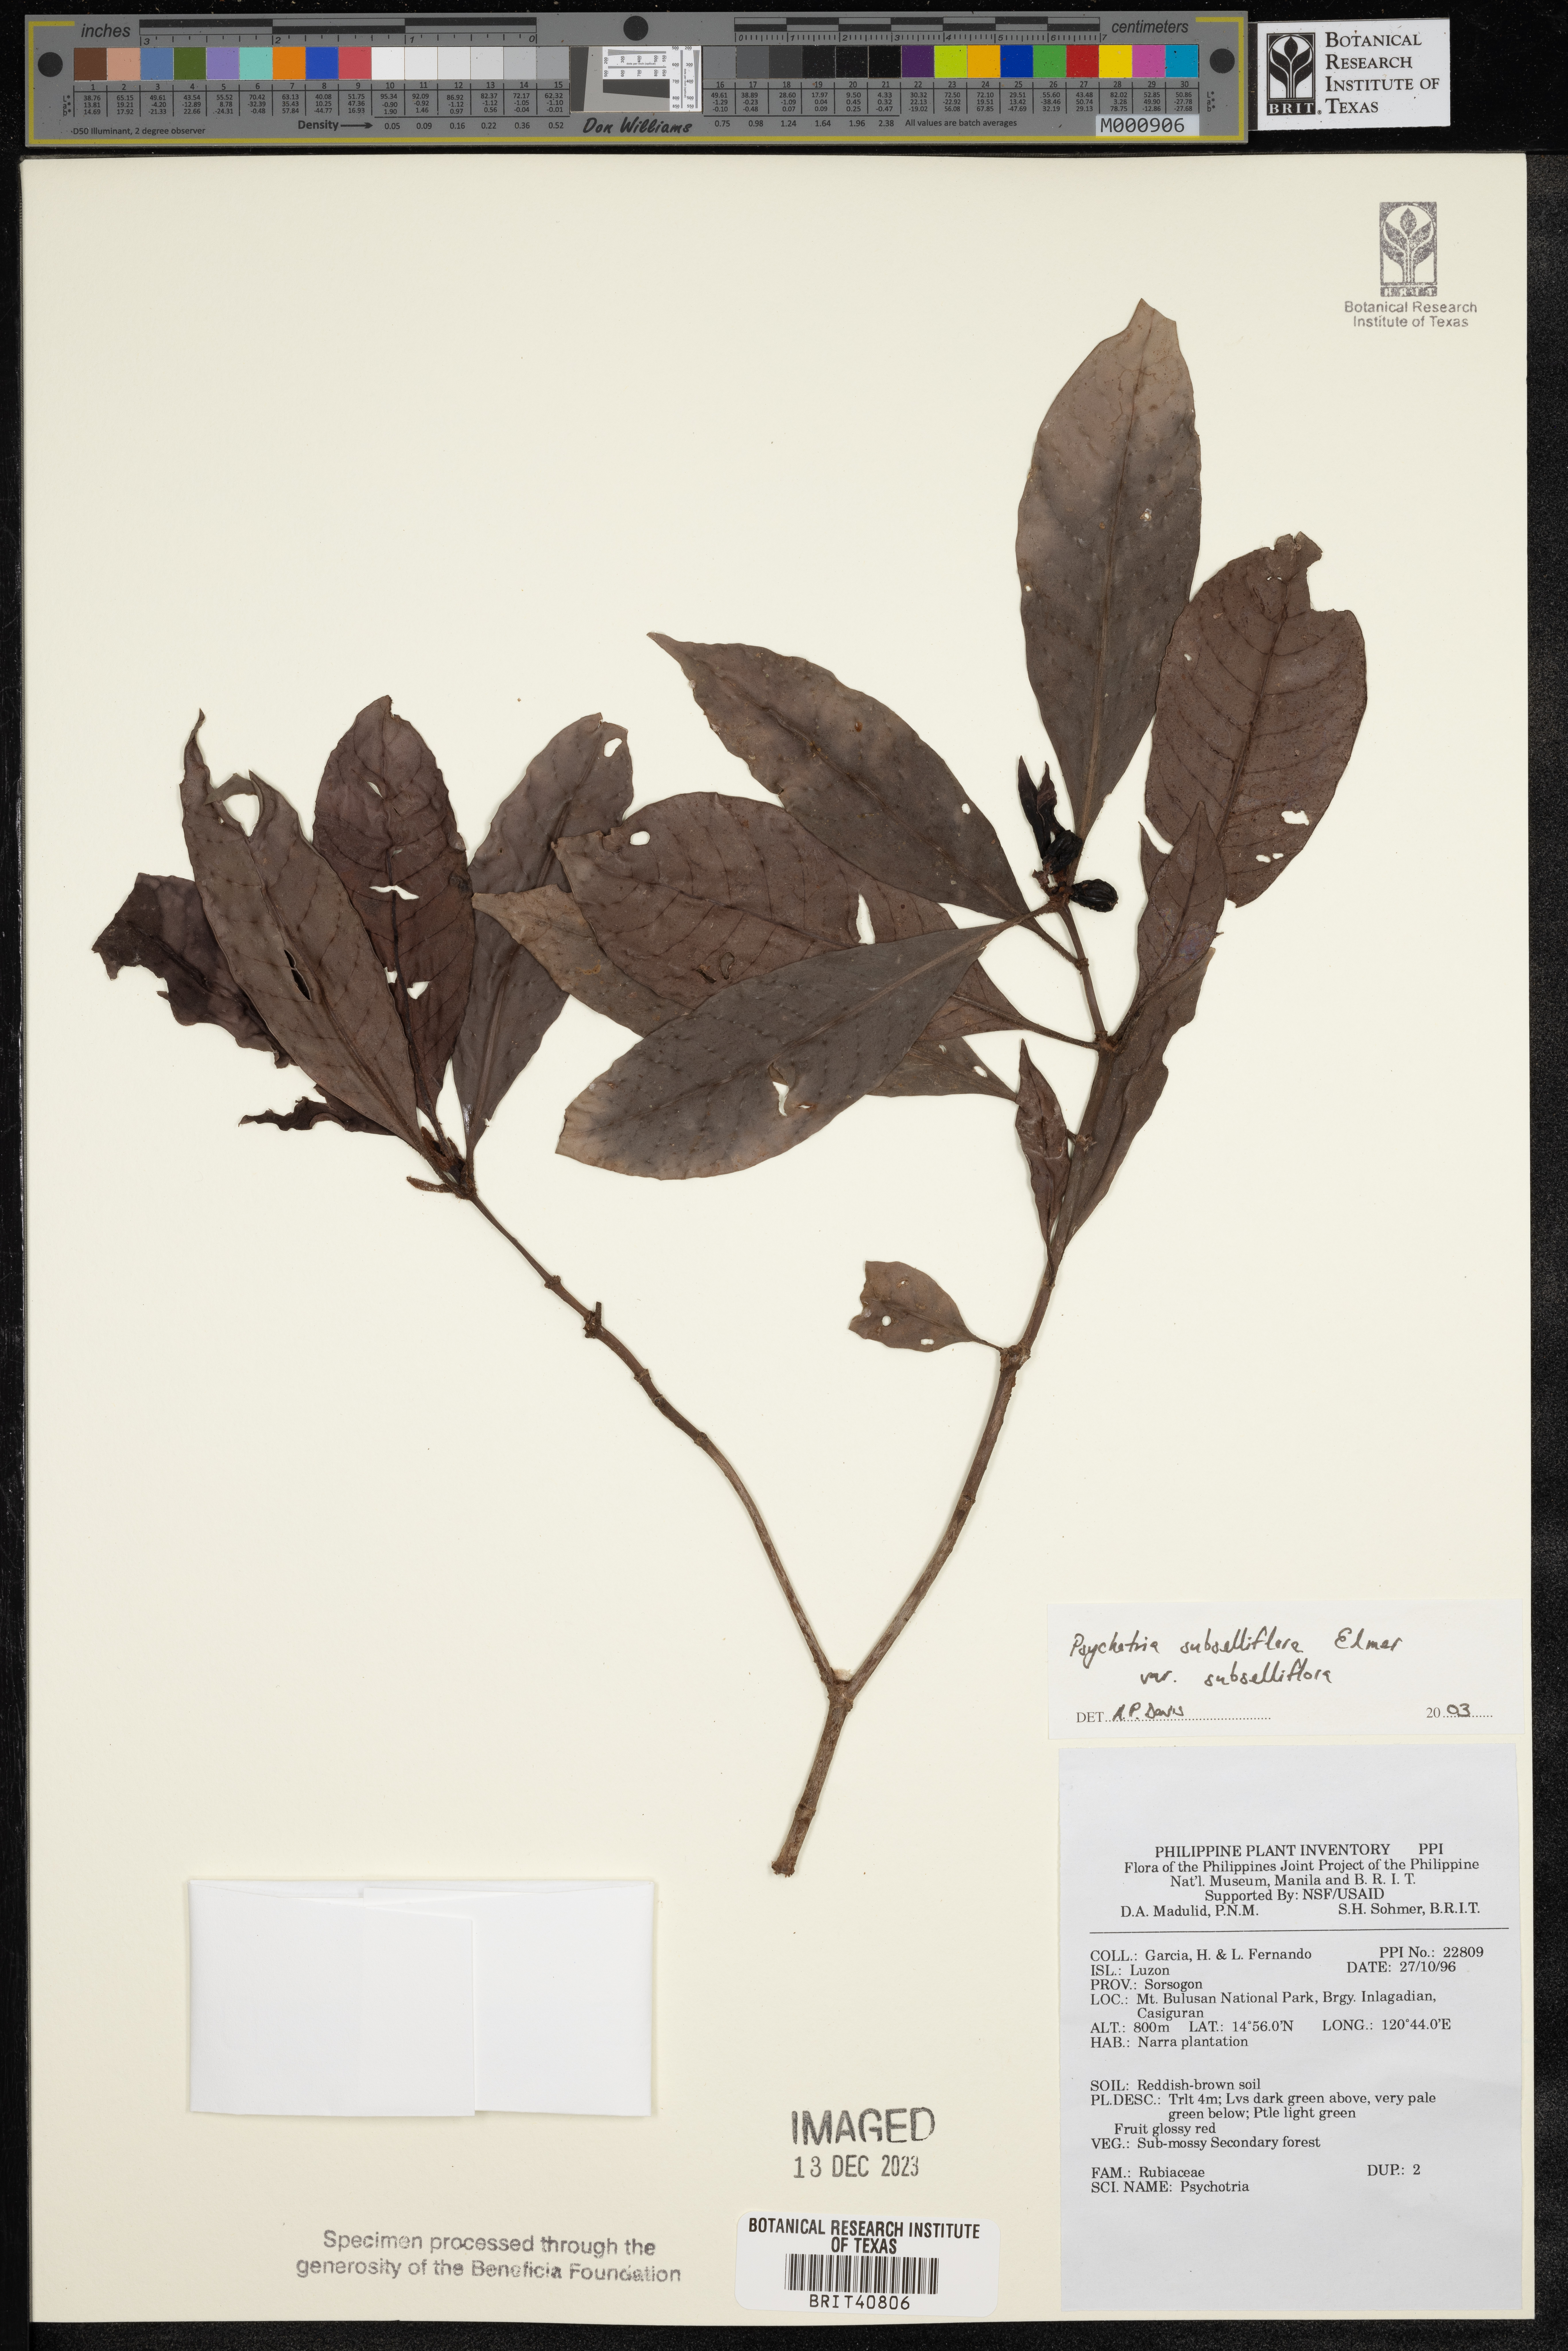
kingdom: Plantae
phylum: Tracheophyta
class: Magnoliopsida
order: Gentianales
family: Rubiaceae
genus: Psychotria
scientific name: Psychotria subsessiliflora
